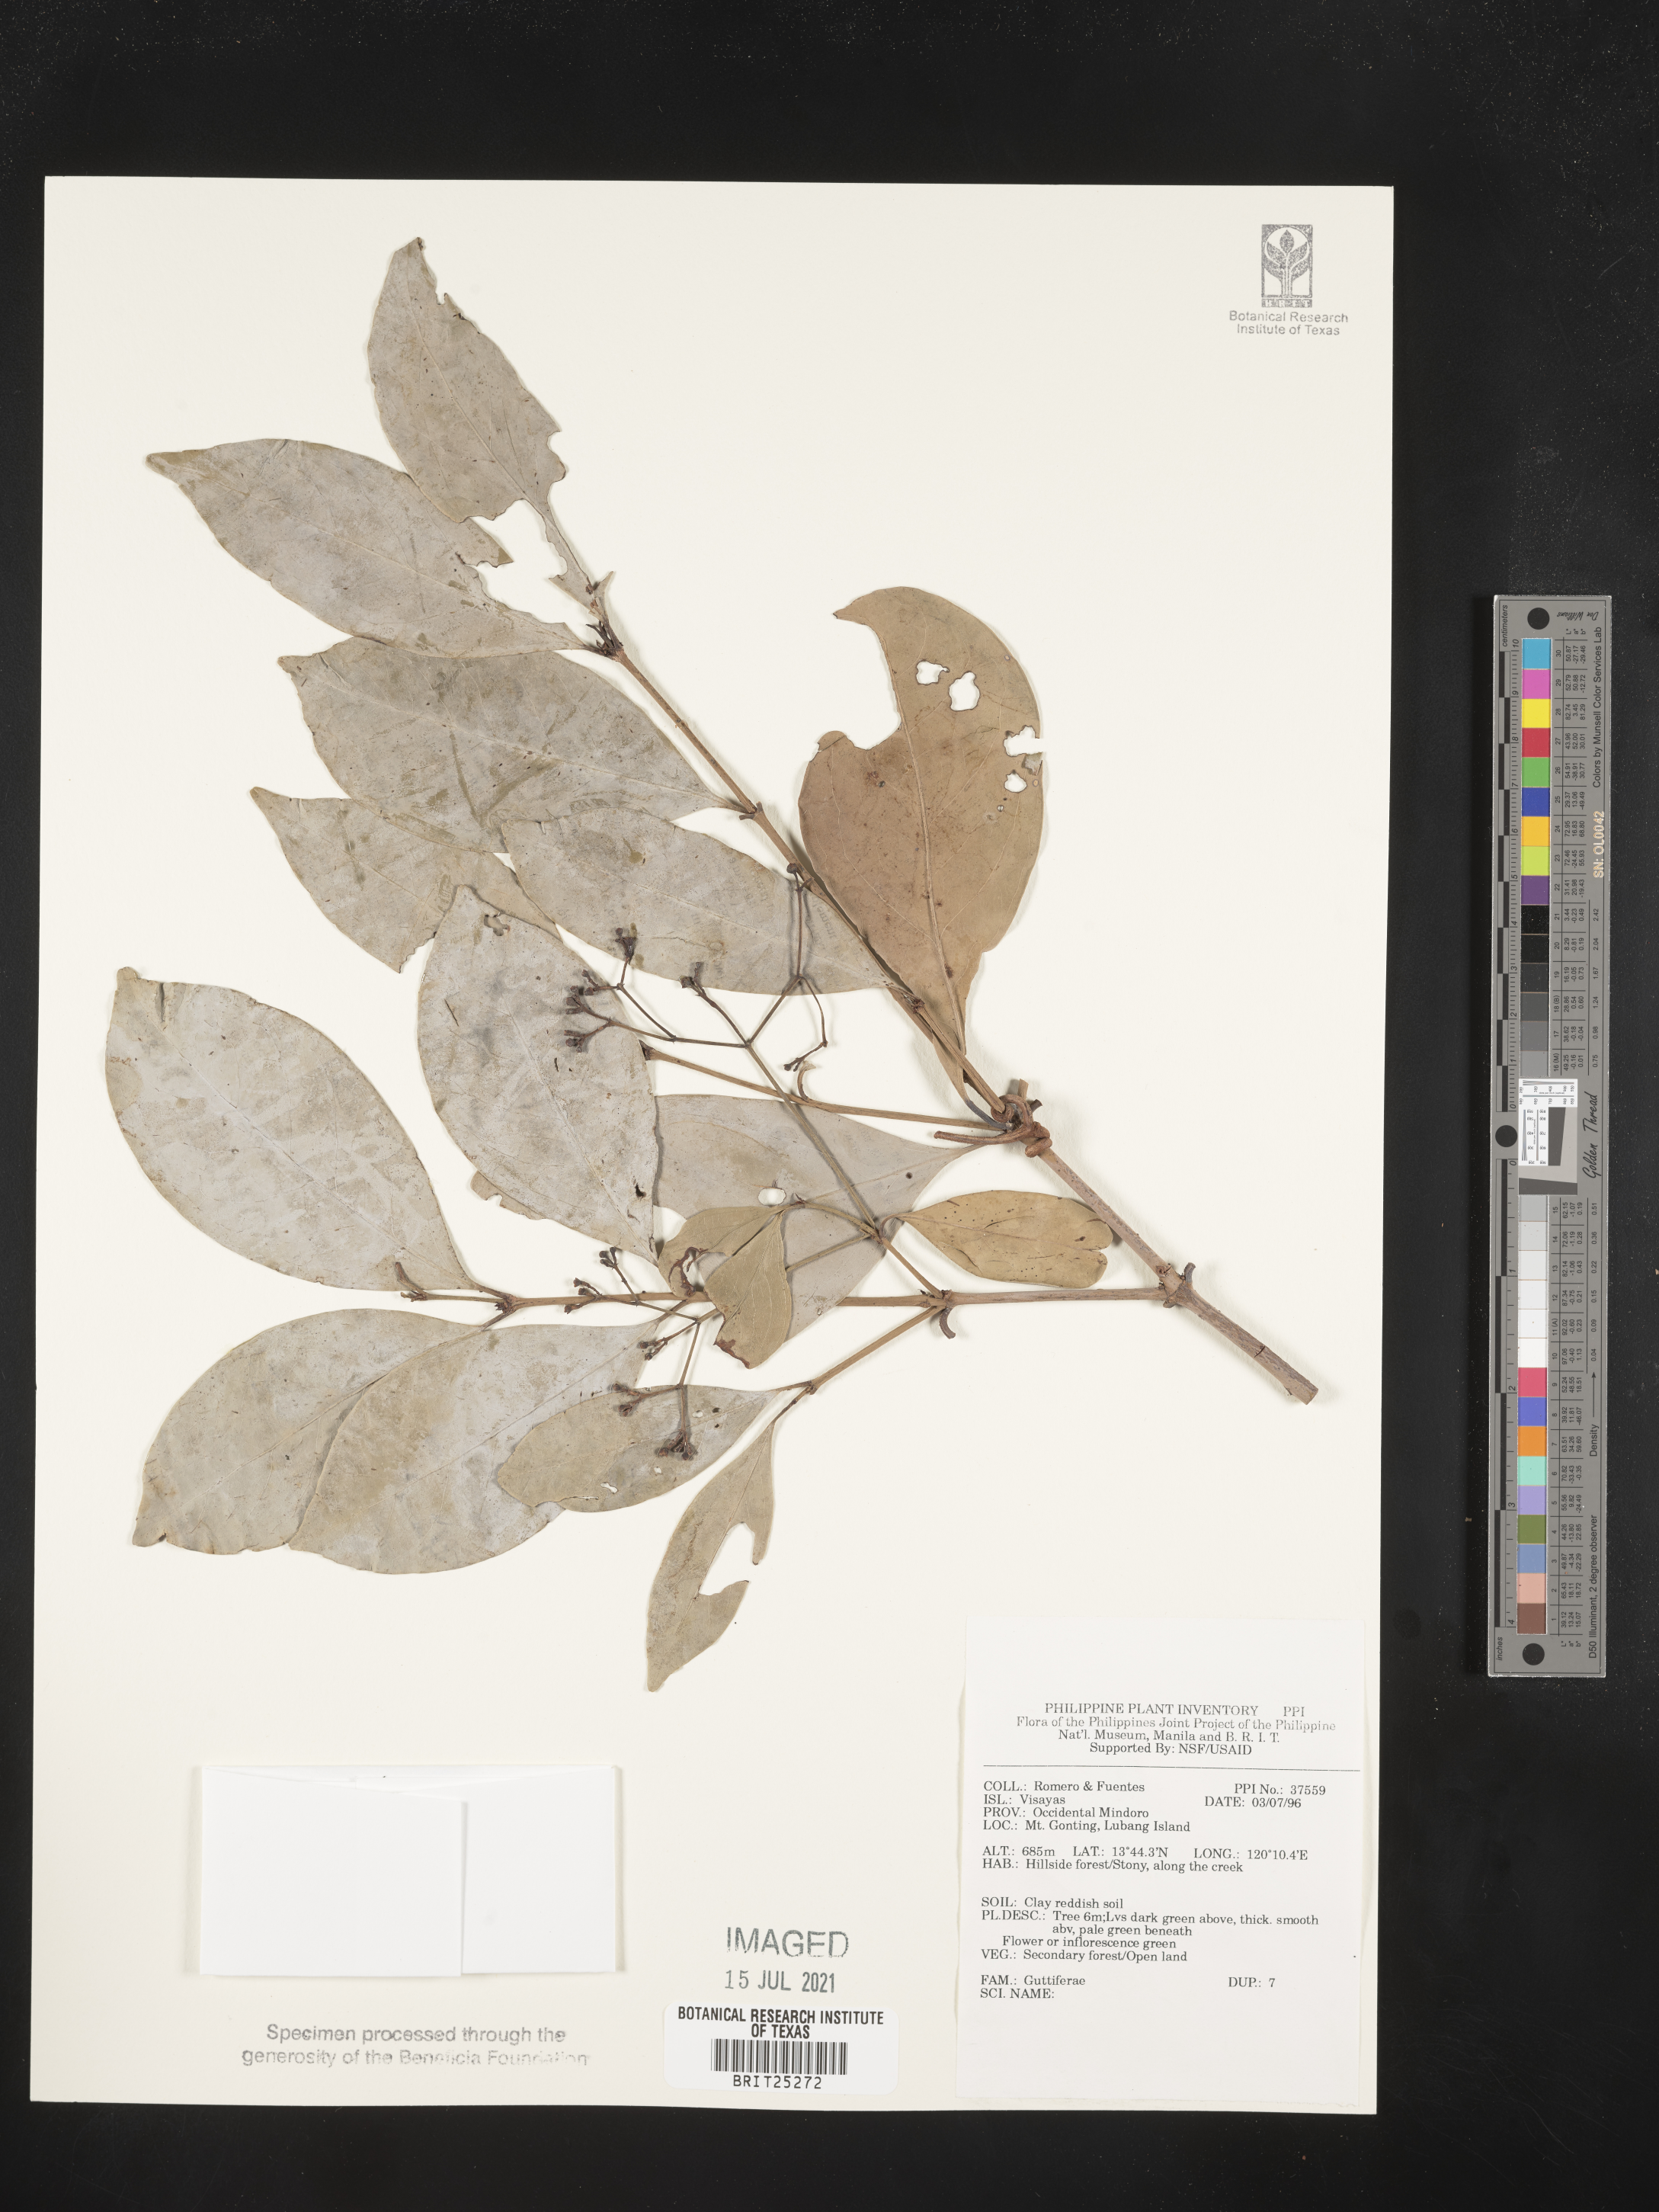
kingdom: Plantae
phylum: Tracheophyta
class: Magnoliopsida
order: Malpighiales
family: Hypericaceae
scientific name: Hypericaceae
